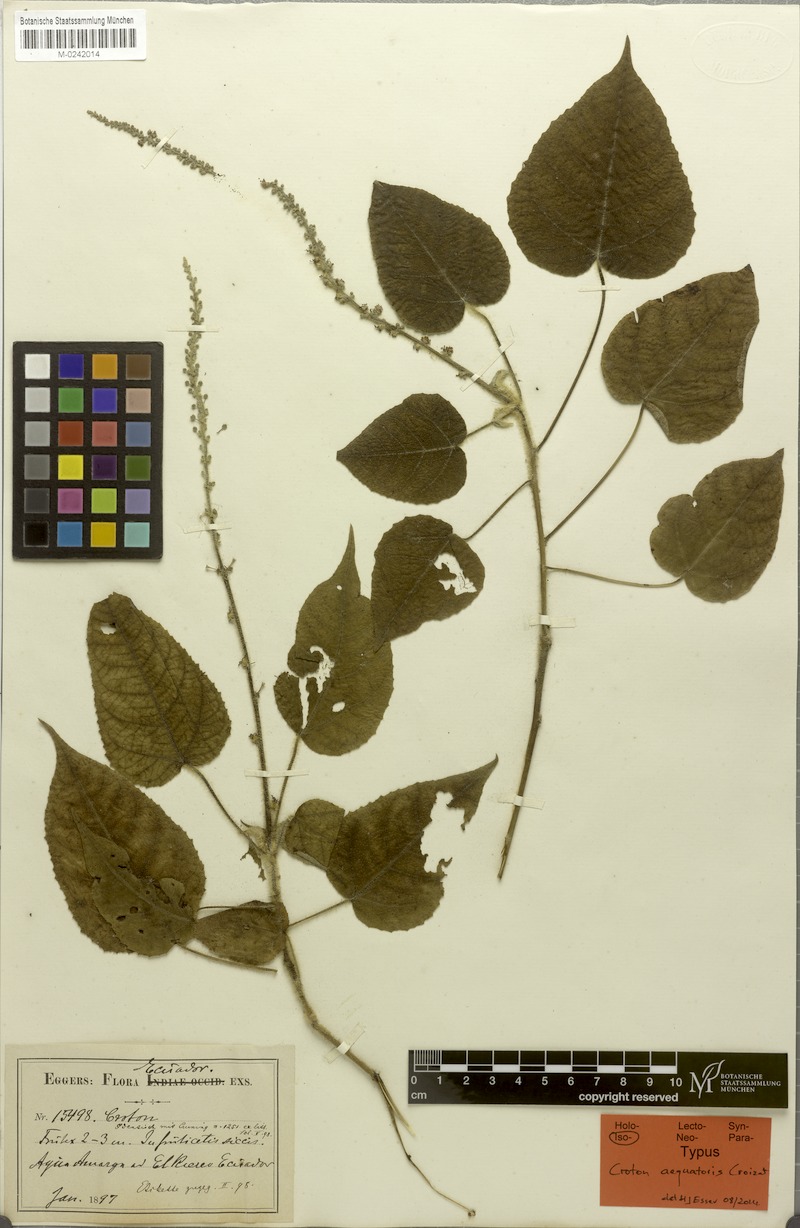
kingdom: Plantae
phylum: Tracheophyta
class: Magnoliopsida
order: Malpighiales
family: Euphorbiaceae
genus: Croton
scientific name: Croton aequatoris
